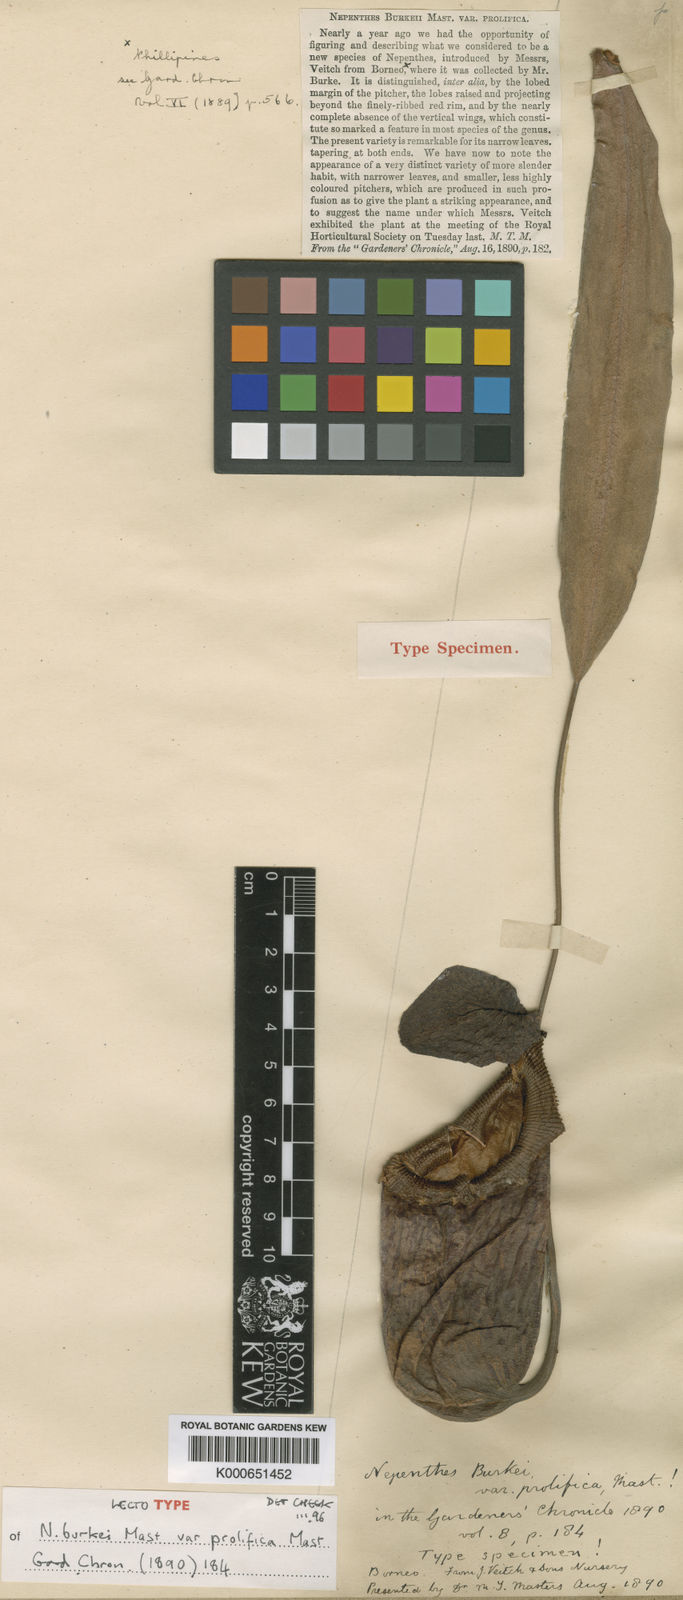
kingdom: Plantae
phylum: Tracheophyta
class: Magnoliopsida
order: Caryophyllales
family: Nepenthaceae
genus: Nepenthes
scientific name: Nepenthes burkei
